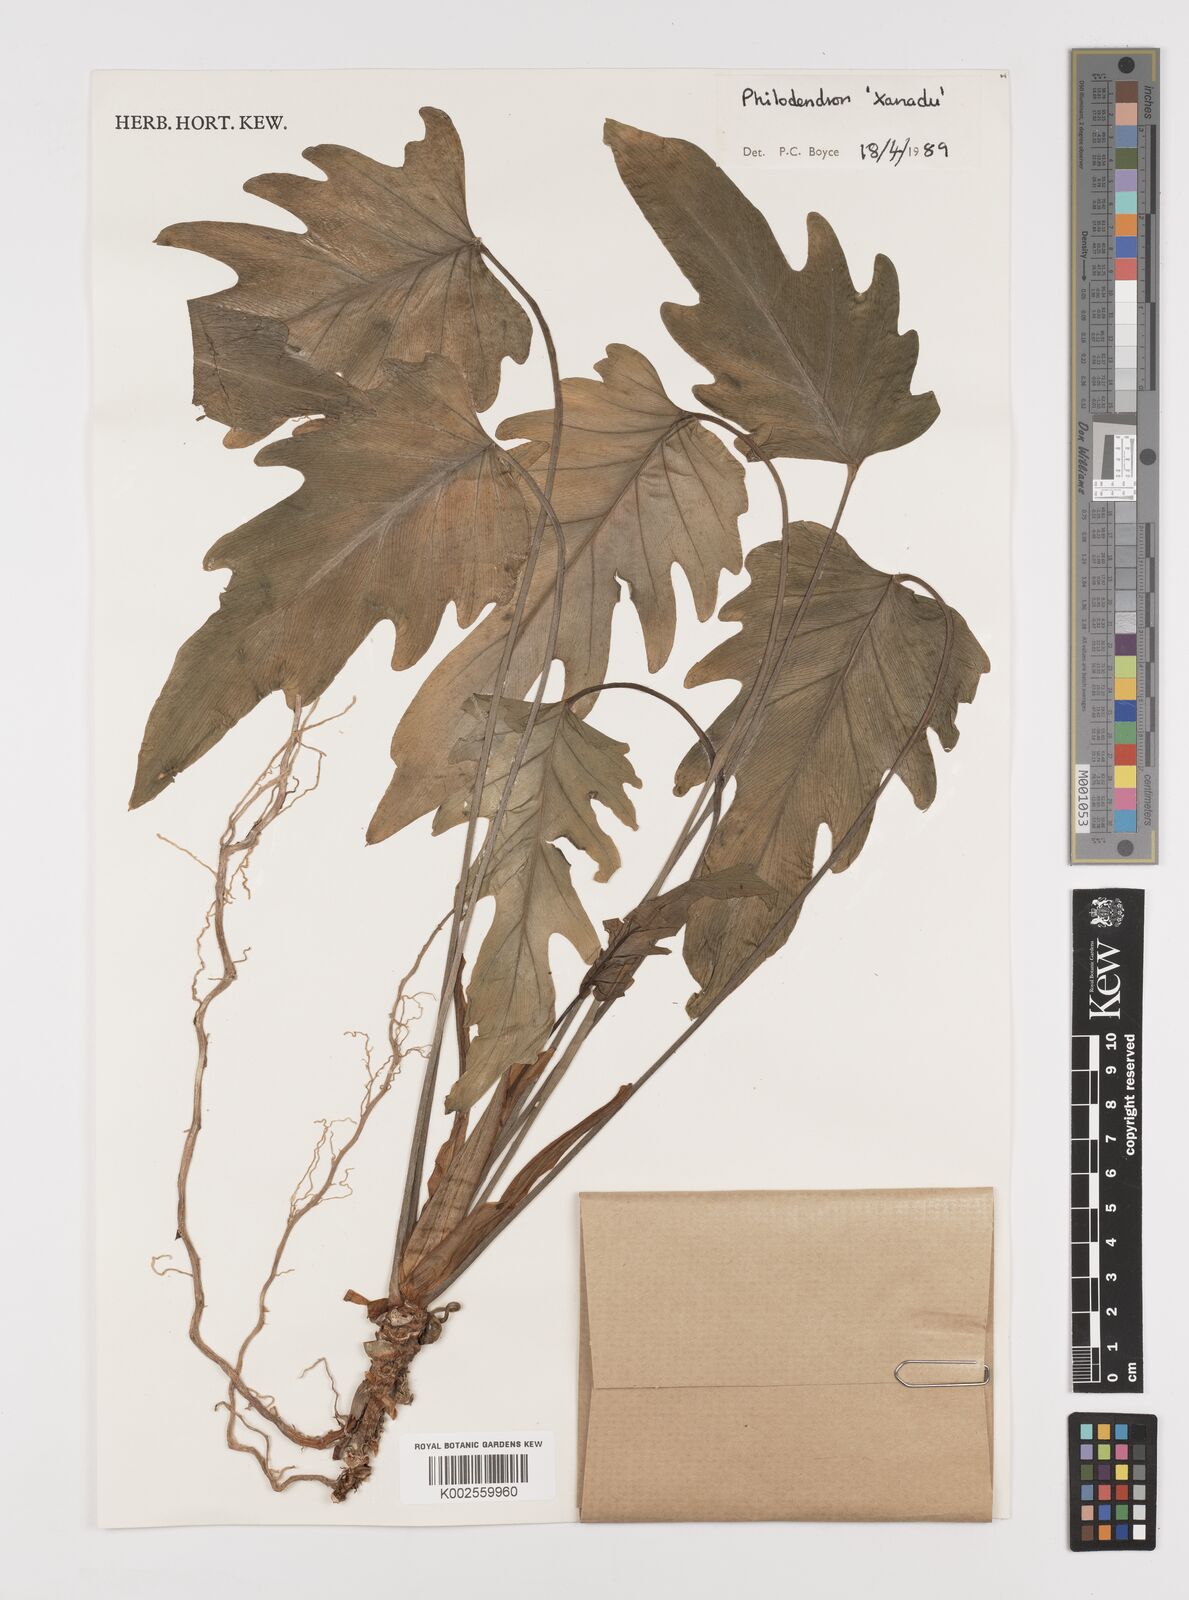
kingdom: Plantae
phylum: Tracheophyta
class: Liliopsida
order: Alismatales
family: Araceae
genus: Thaumatophyllum
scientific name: Thaumatophyllum xanadu
